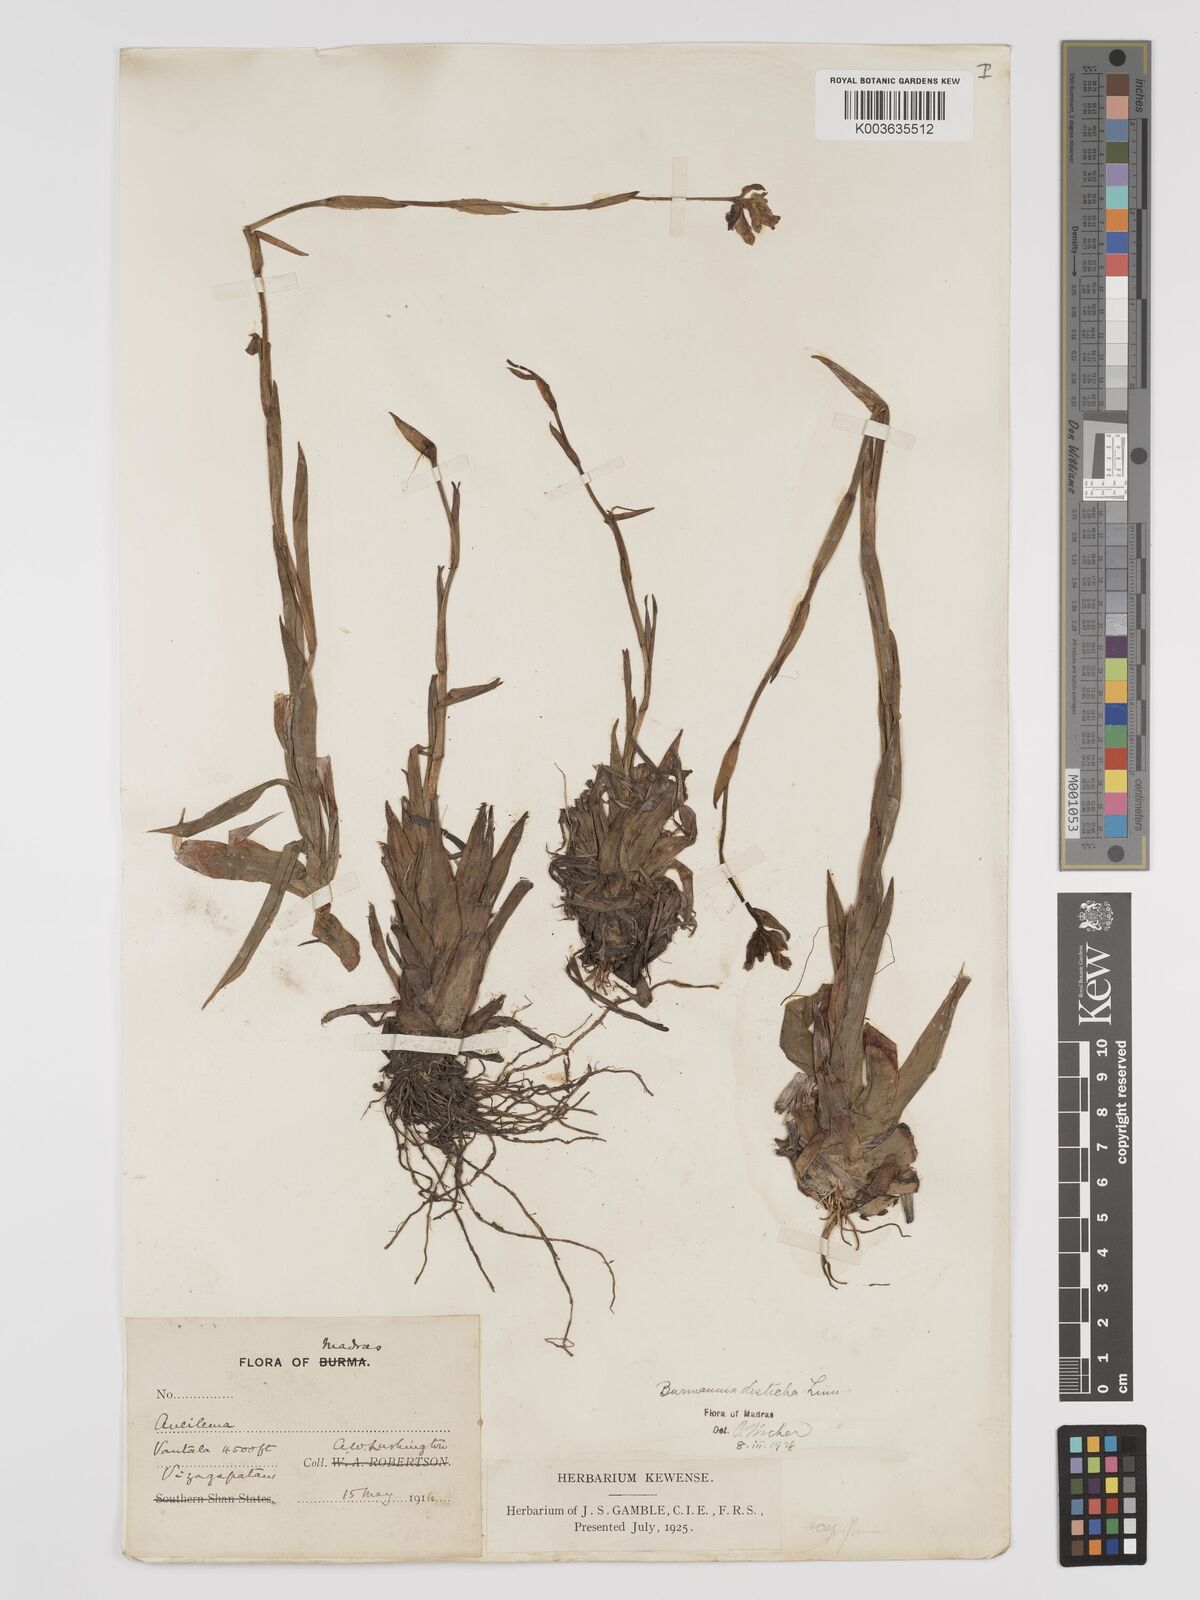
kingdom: Plantae
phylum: Tracheophyta
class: Liliopsida
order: Dioscoreales
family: Burmanniaceae
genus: Burmannia
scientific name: Burmannia disticha
